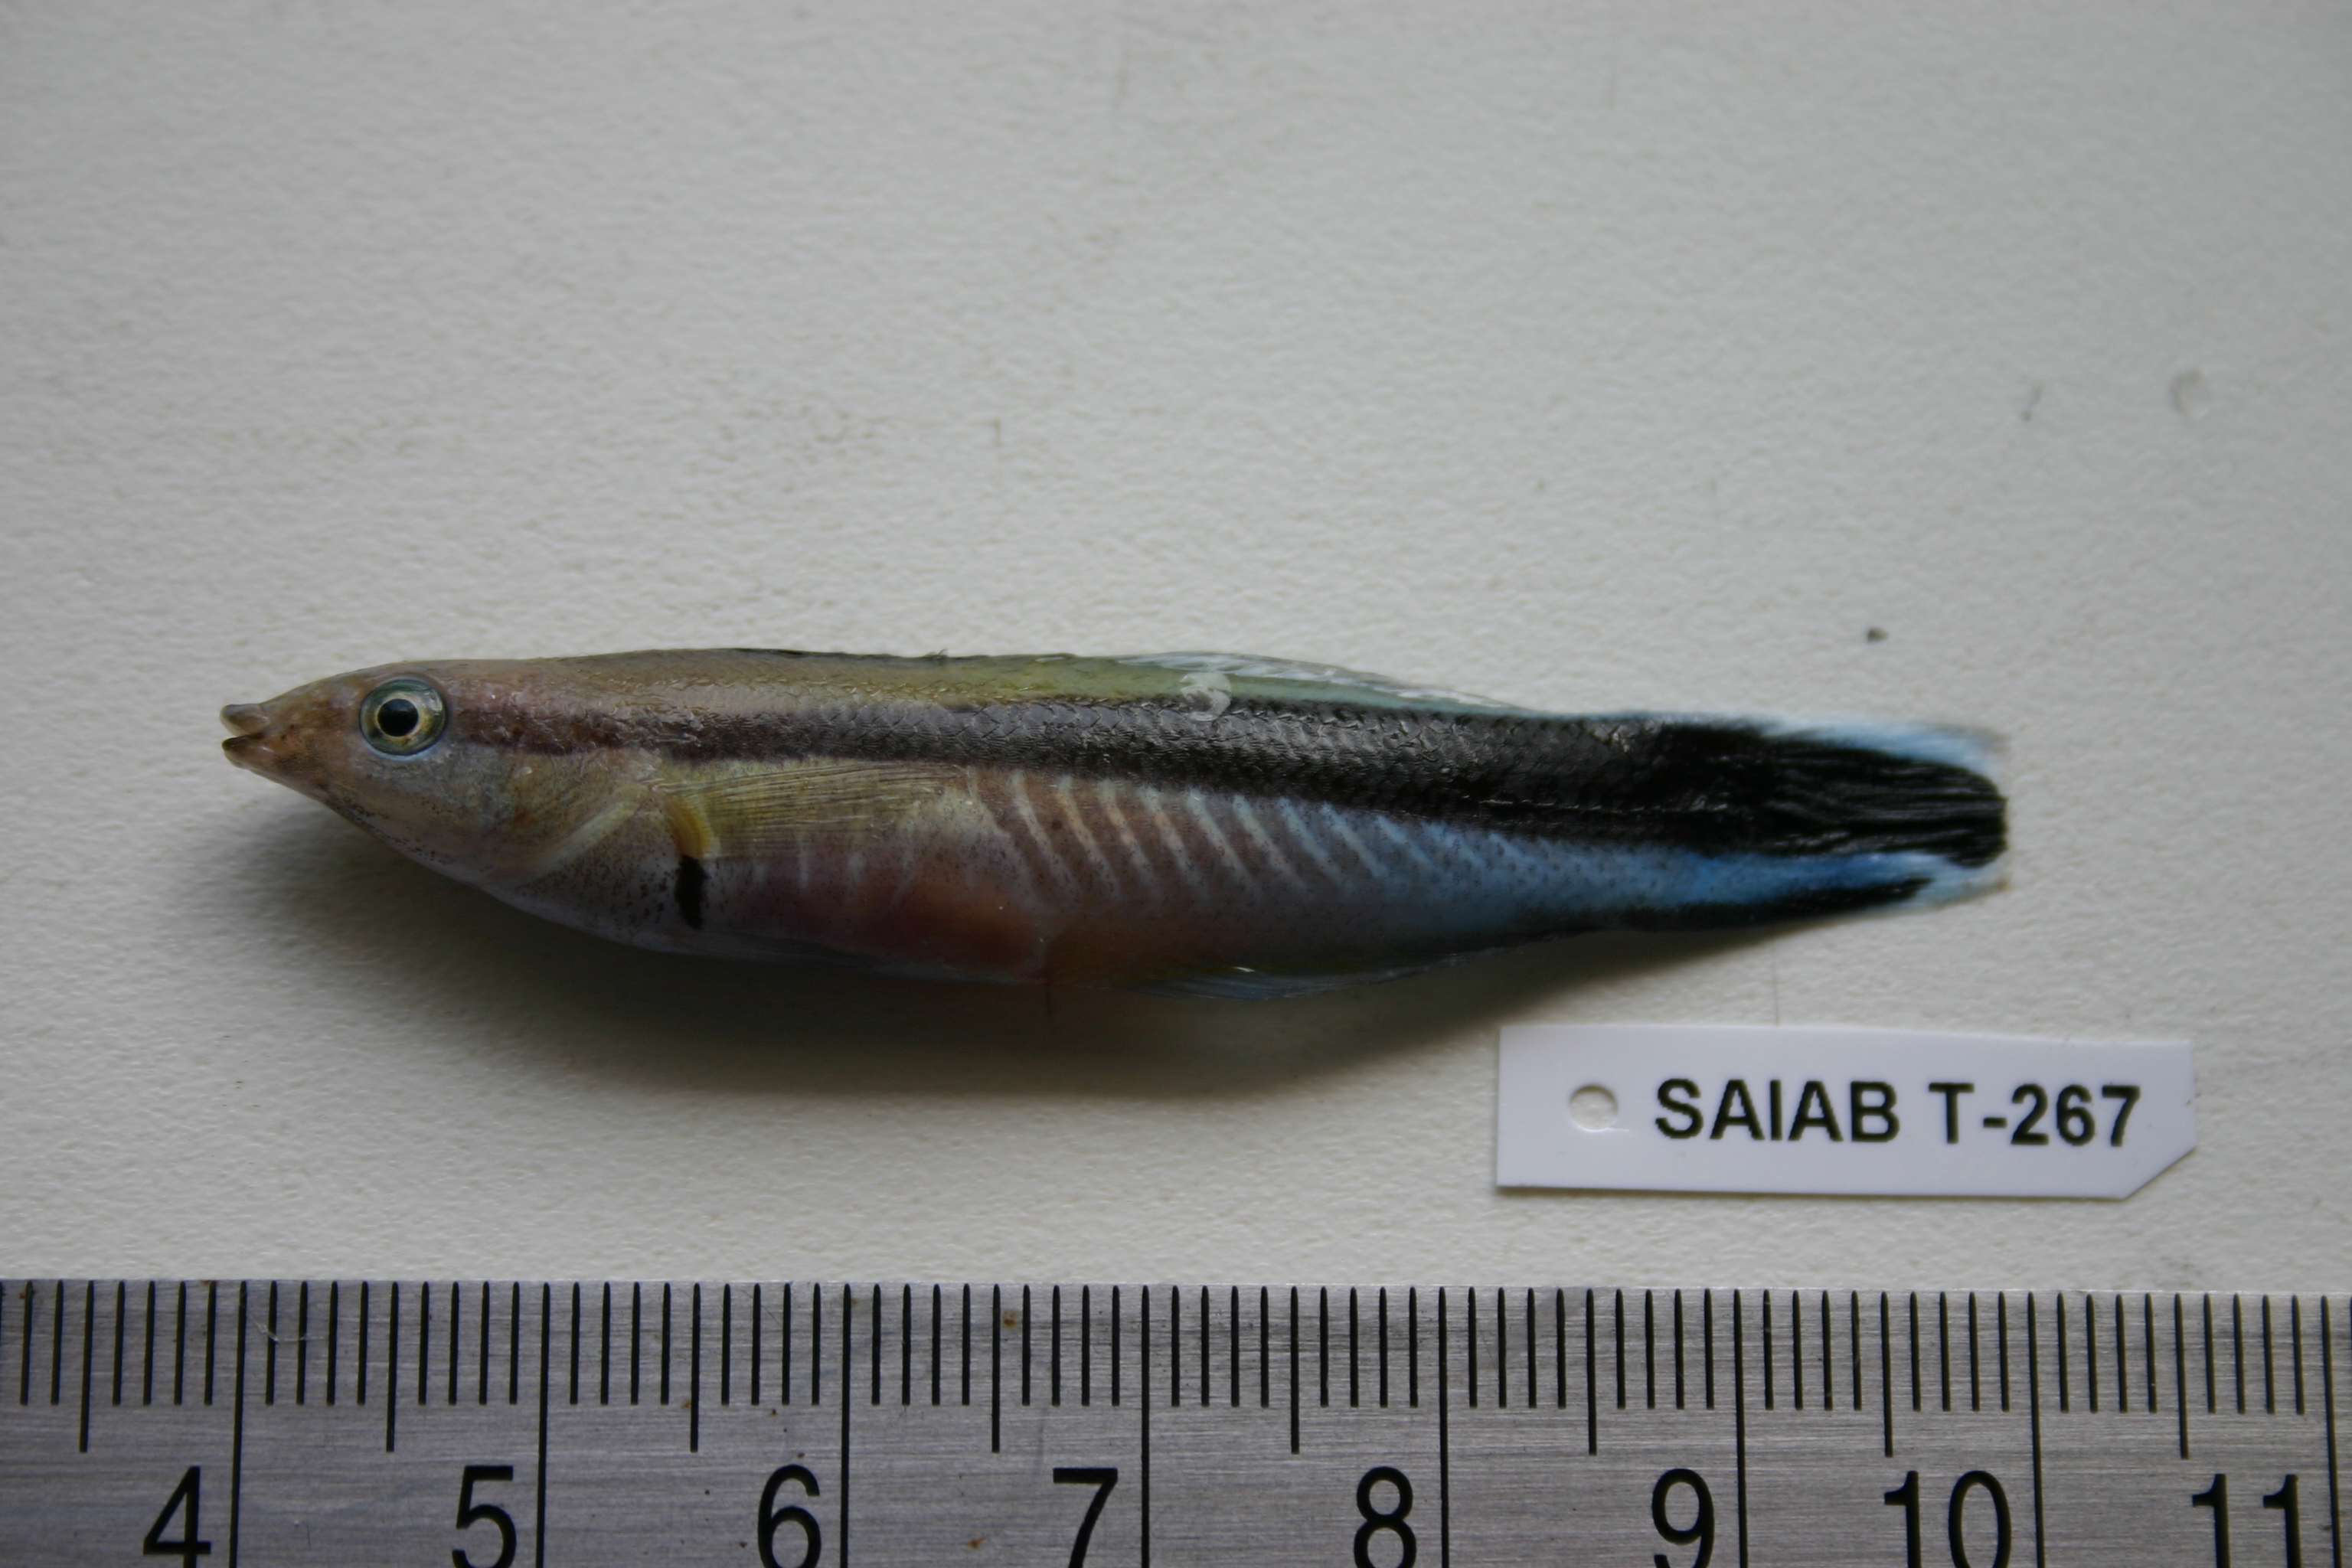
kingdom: Animalia
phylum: Chordata
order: Perciformes
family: Labridae
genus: Labroides
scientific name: Labroides dimidiatus
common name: Blue diesel wrasse
